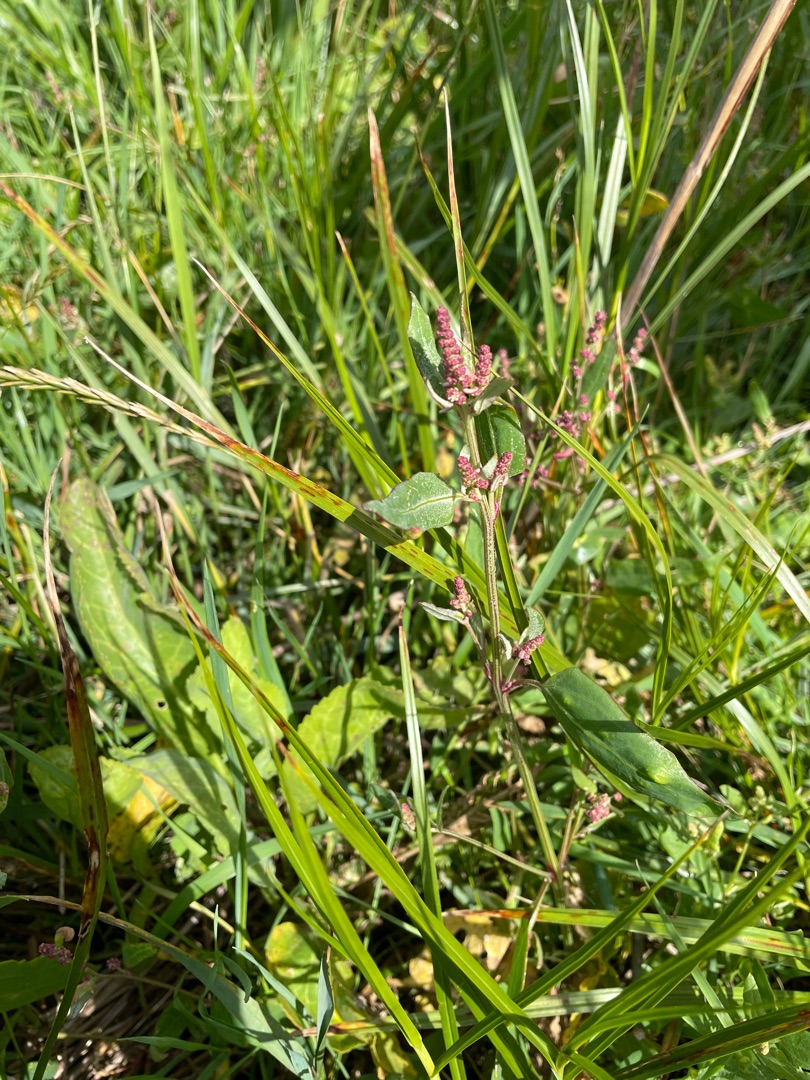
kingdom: Plantae
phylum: Tracheophyta
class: Magnoliopsida
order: Caryophyllales
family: Amaranthaceae
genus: Atriplex
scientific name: Atriplex
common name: Mældeslægten
